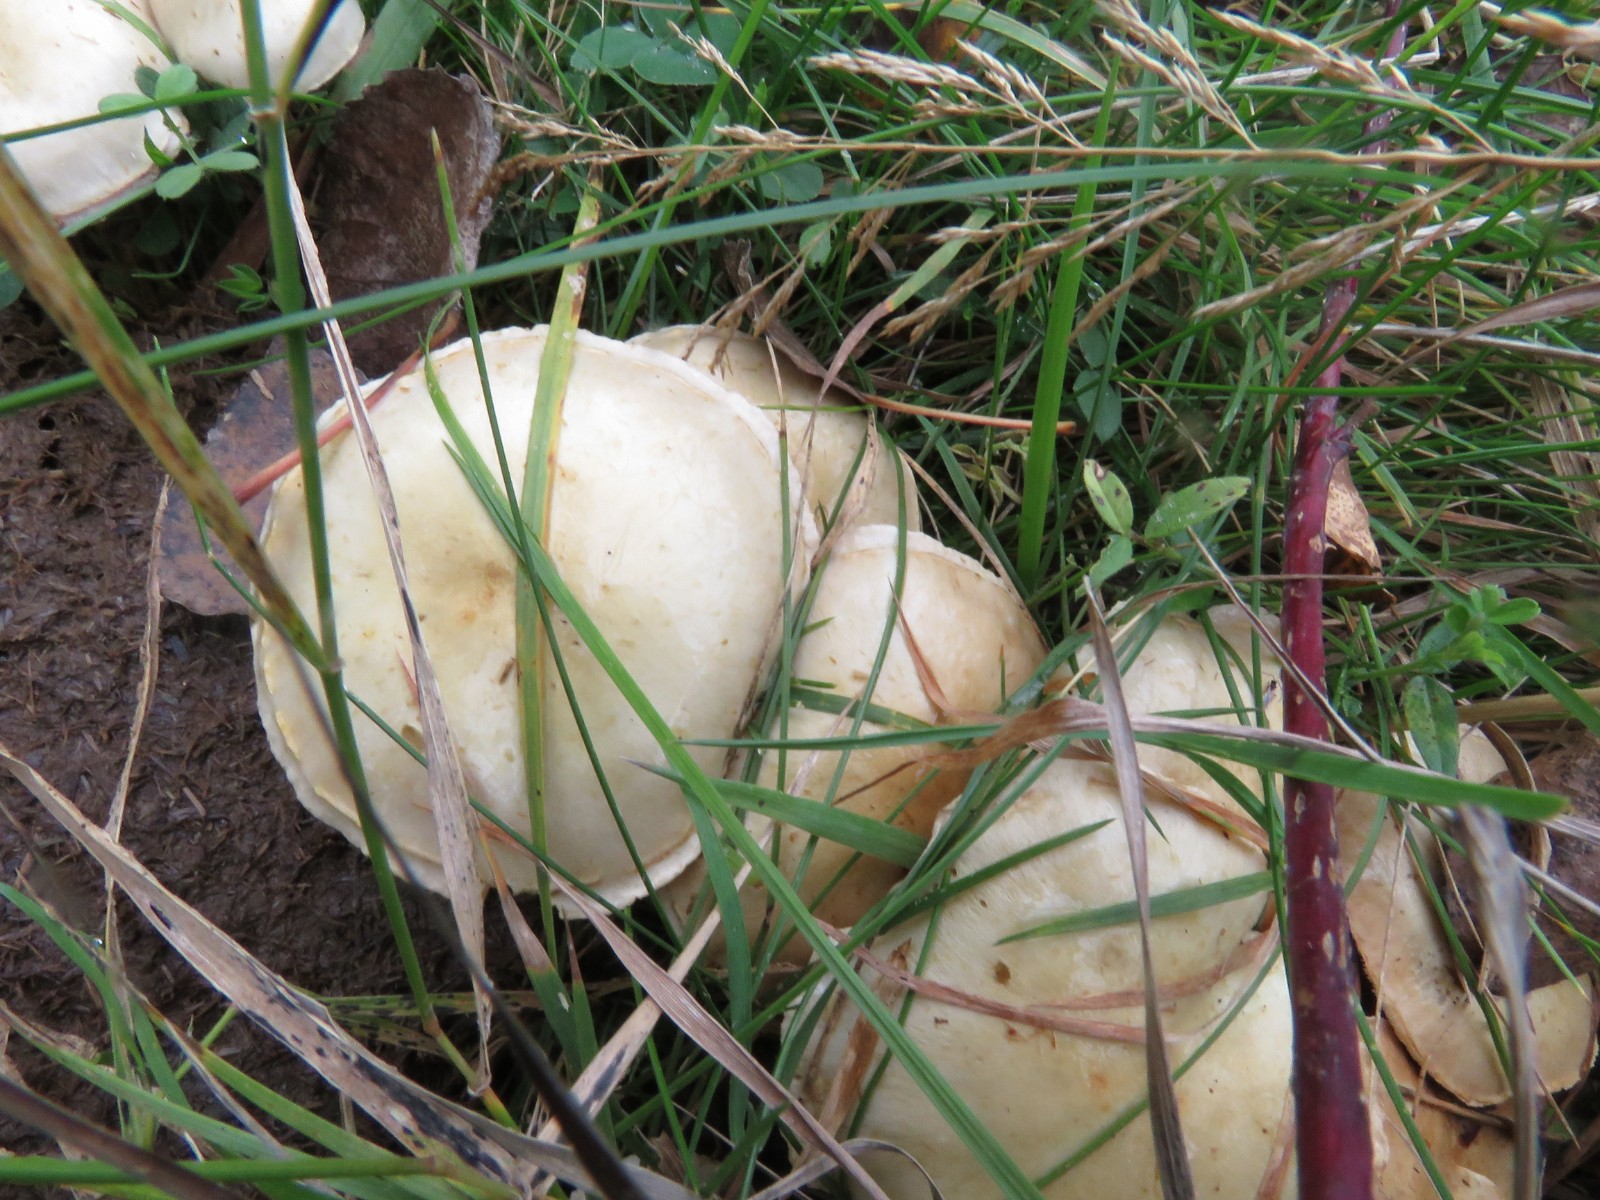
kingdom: Fungi
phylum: Basidiomycota
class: Agaricomycetes
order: Agaricales
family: Strophariaceae
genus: Pholiota
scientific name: Pholiota gummosa
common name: grøngul skælhat
